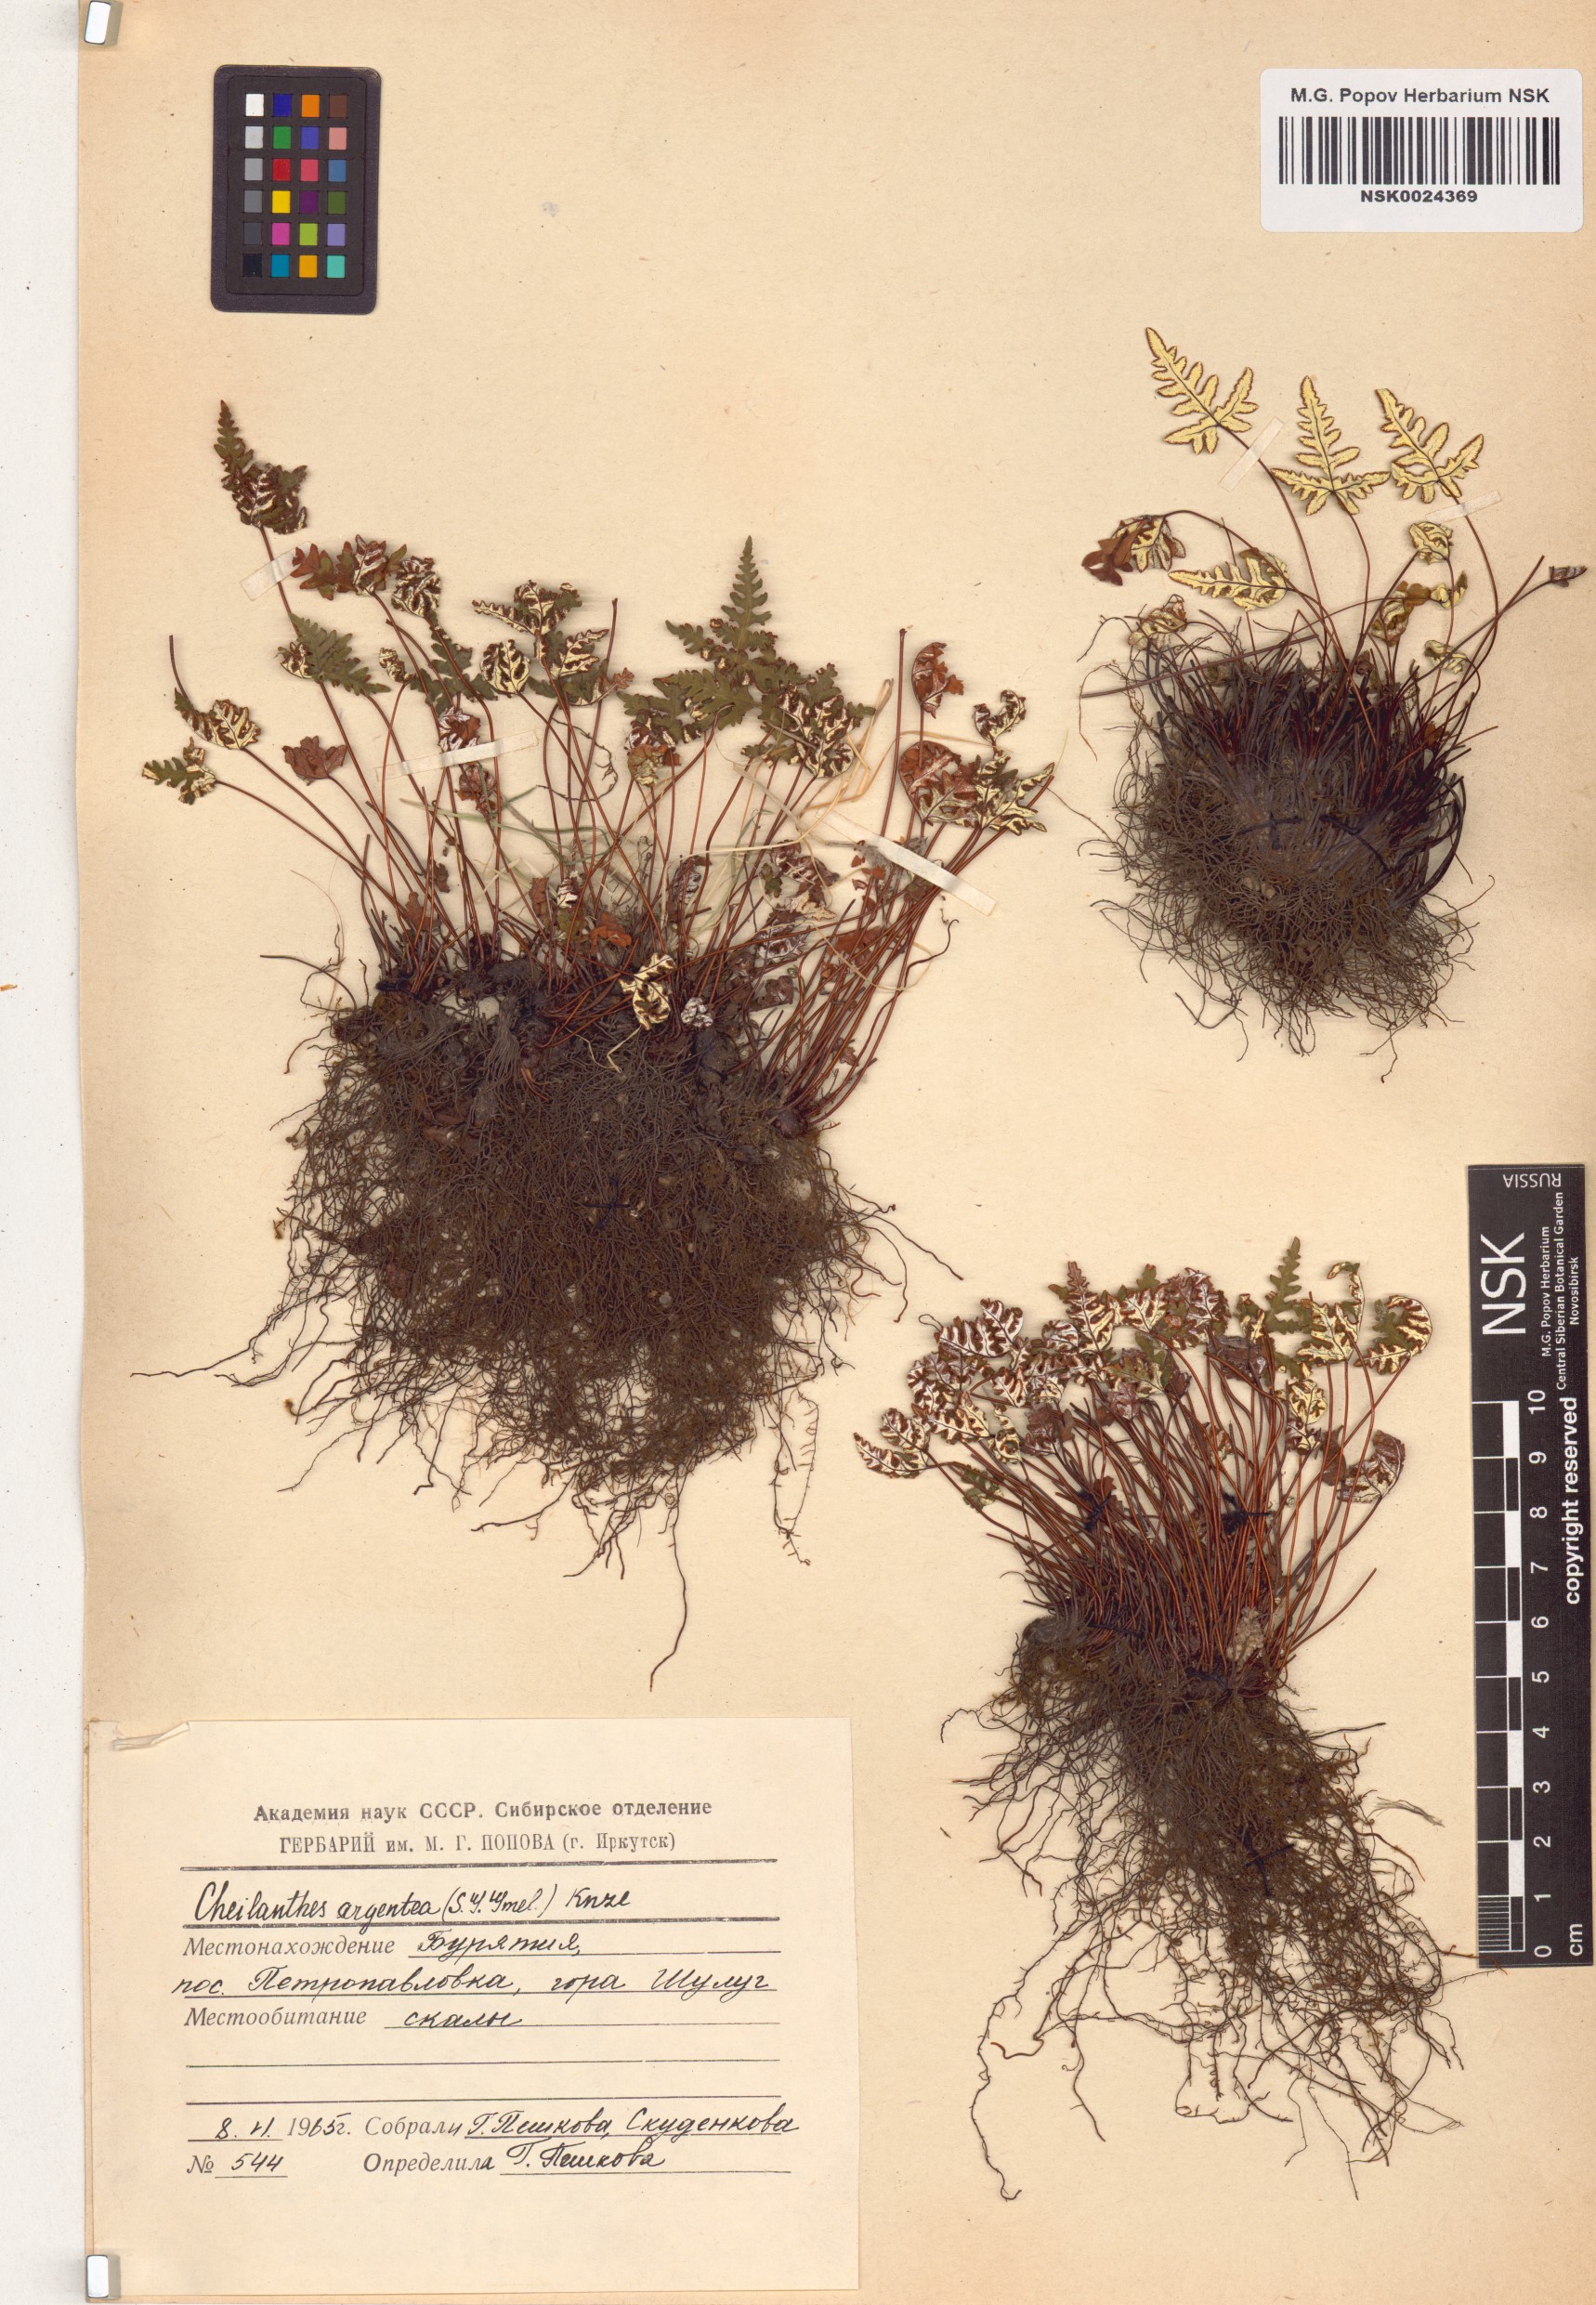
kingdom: Plantae
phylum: Tracheophyta
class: Polypodiopsida
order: Polypodiales
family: Pteridaceae
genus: Aleuritopteris
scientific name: Aleuritopteris argentea
